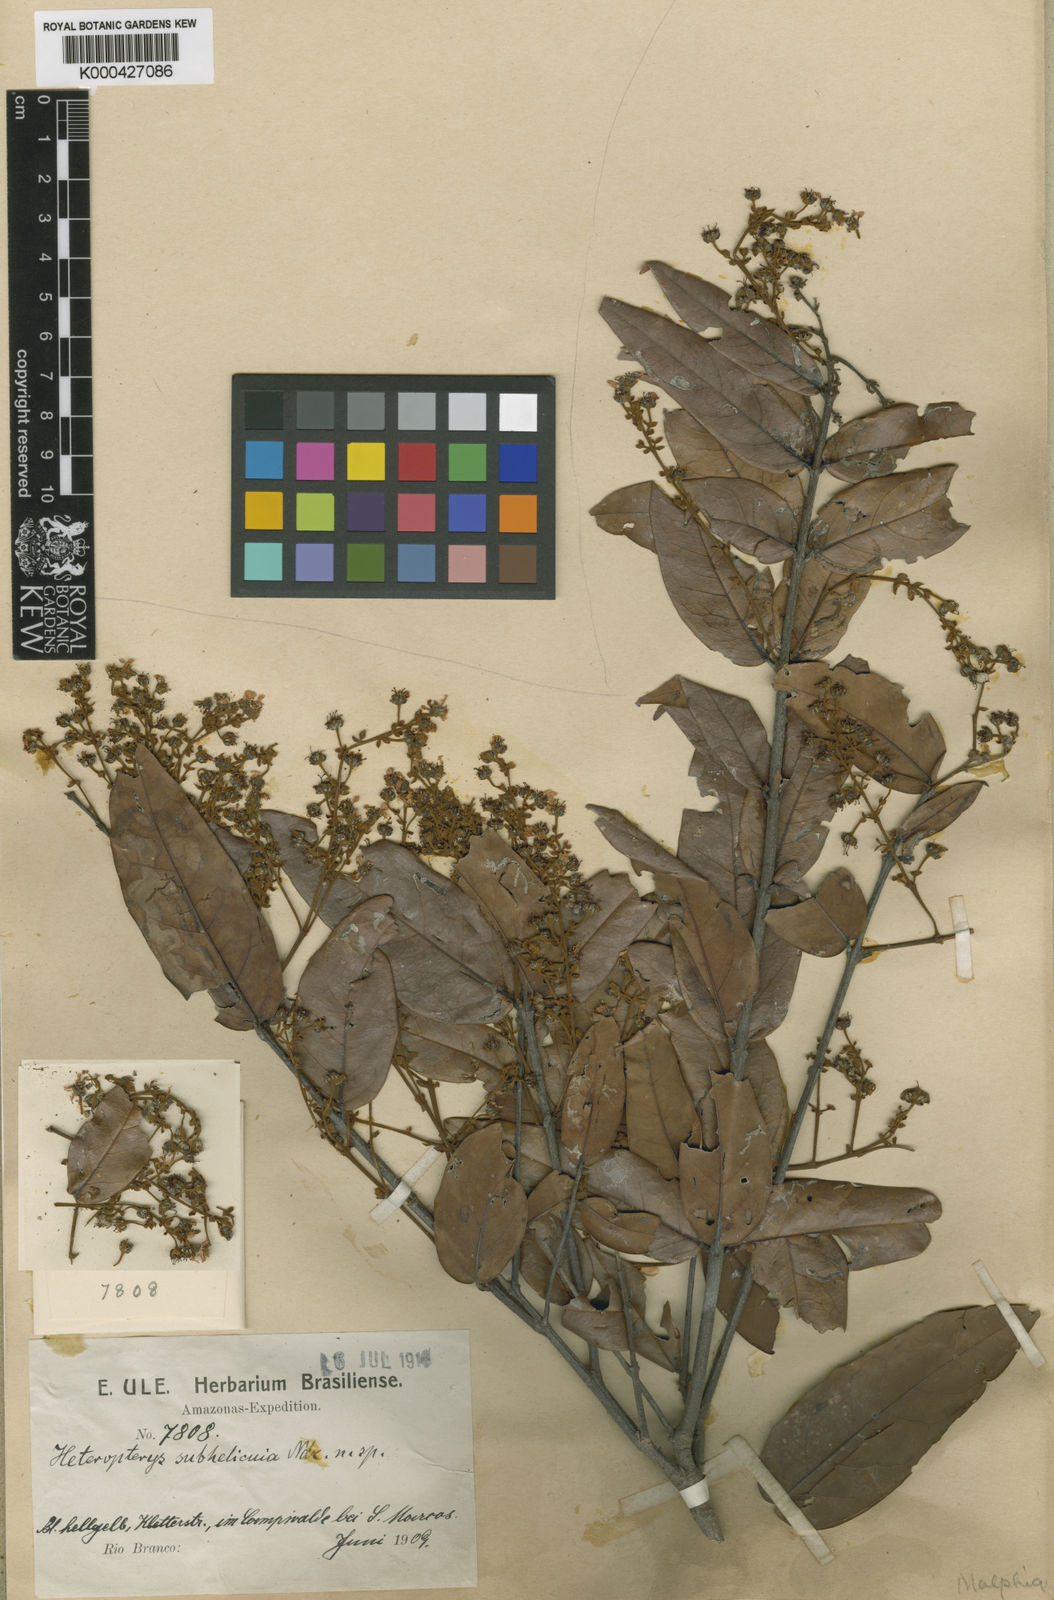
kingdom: Plantae
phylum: Tracheophyta
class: Magnoliopsida
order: Malpighiales
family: Malpighiaceae
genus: Heteropterys
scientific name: Heteropterys subhelicina
